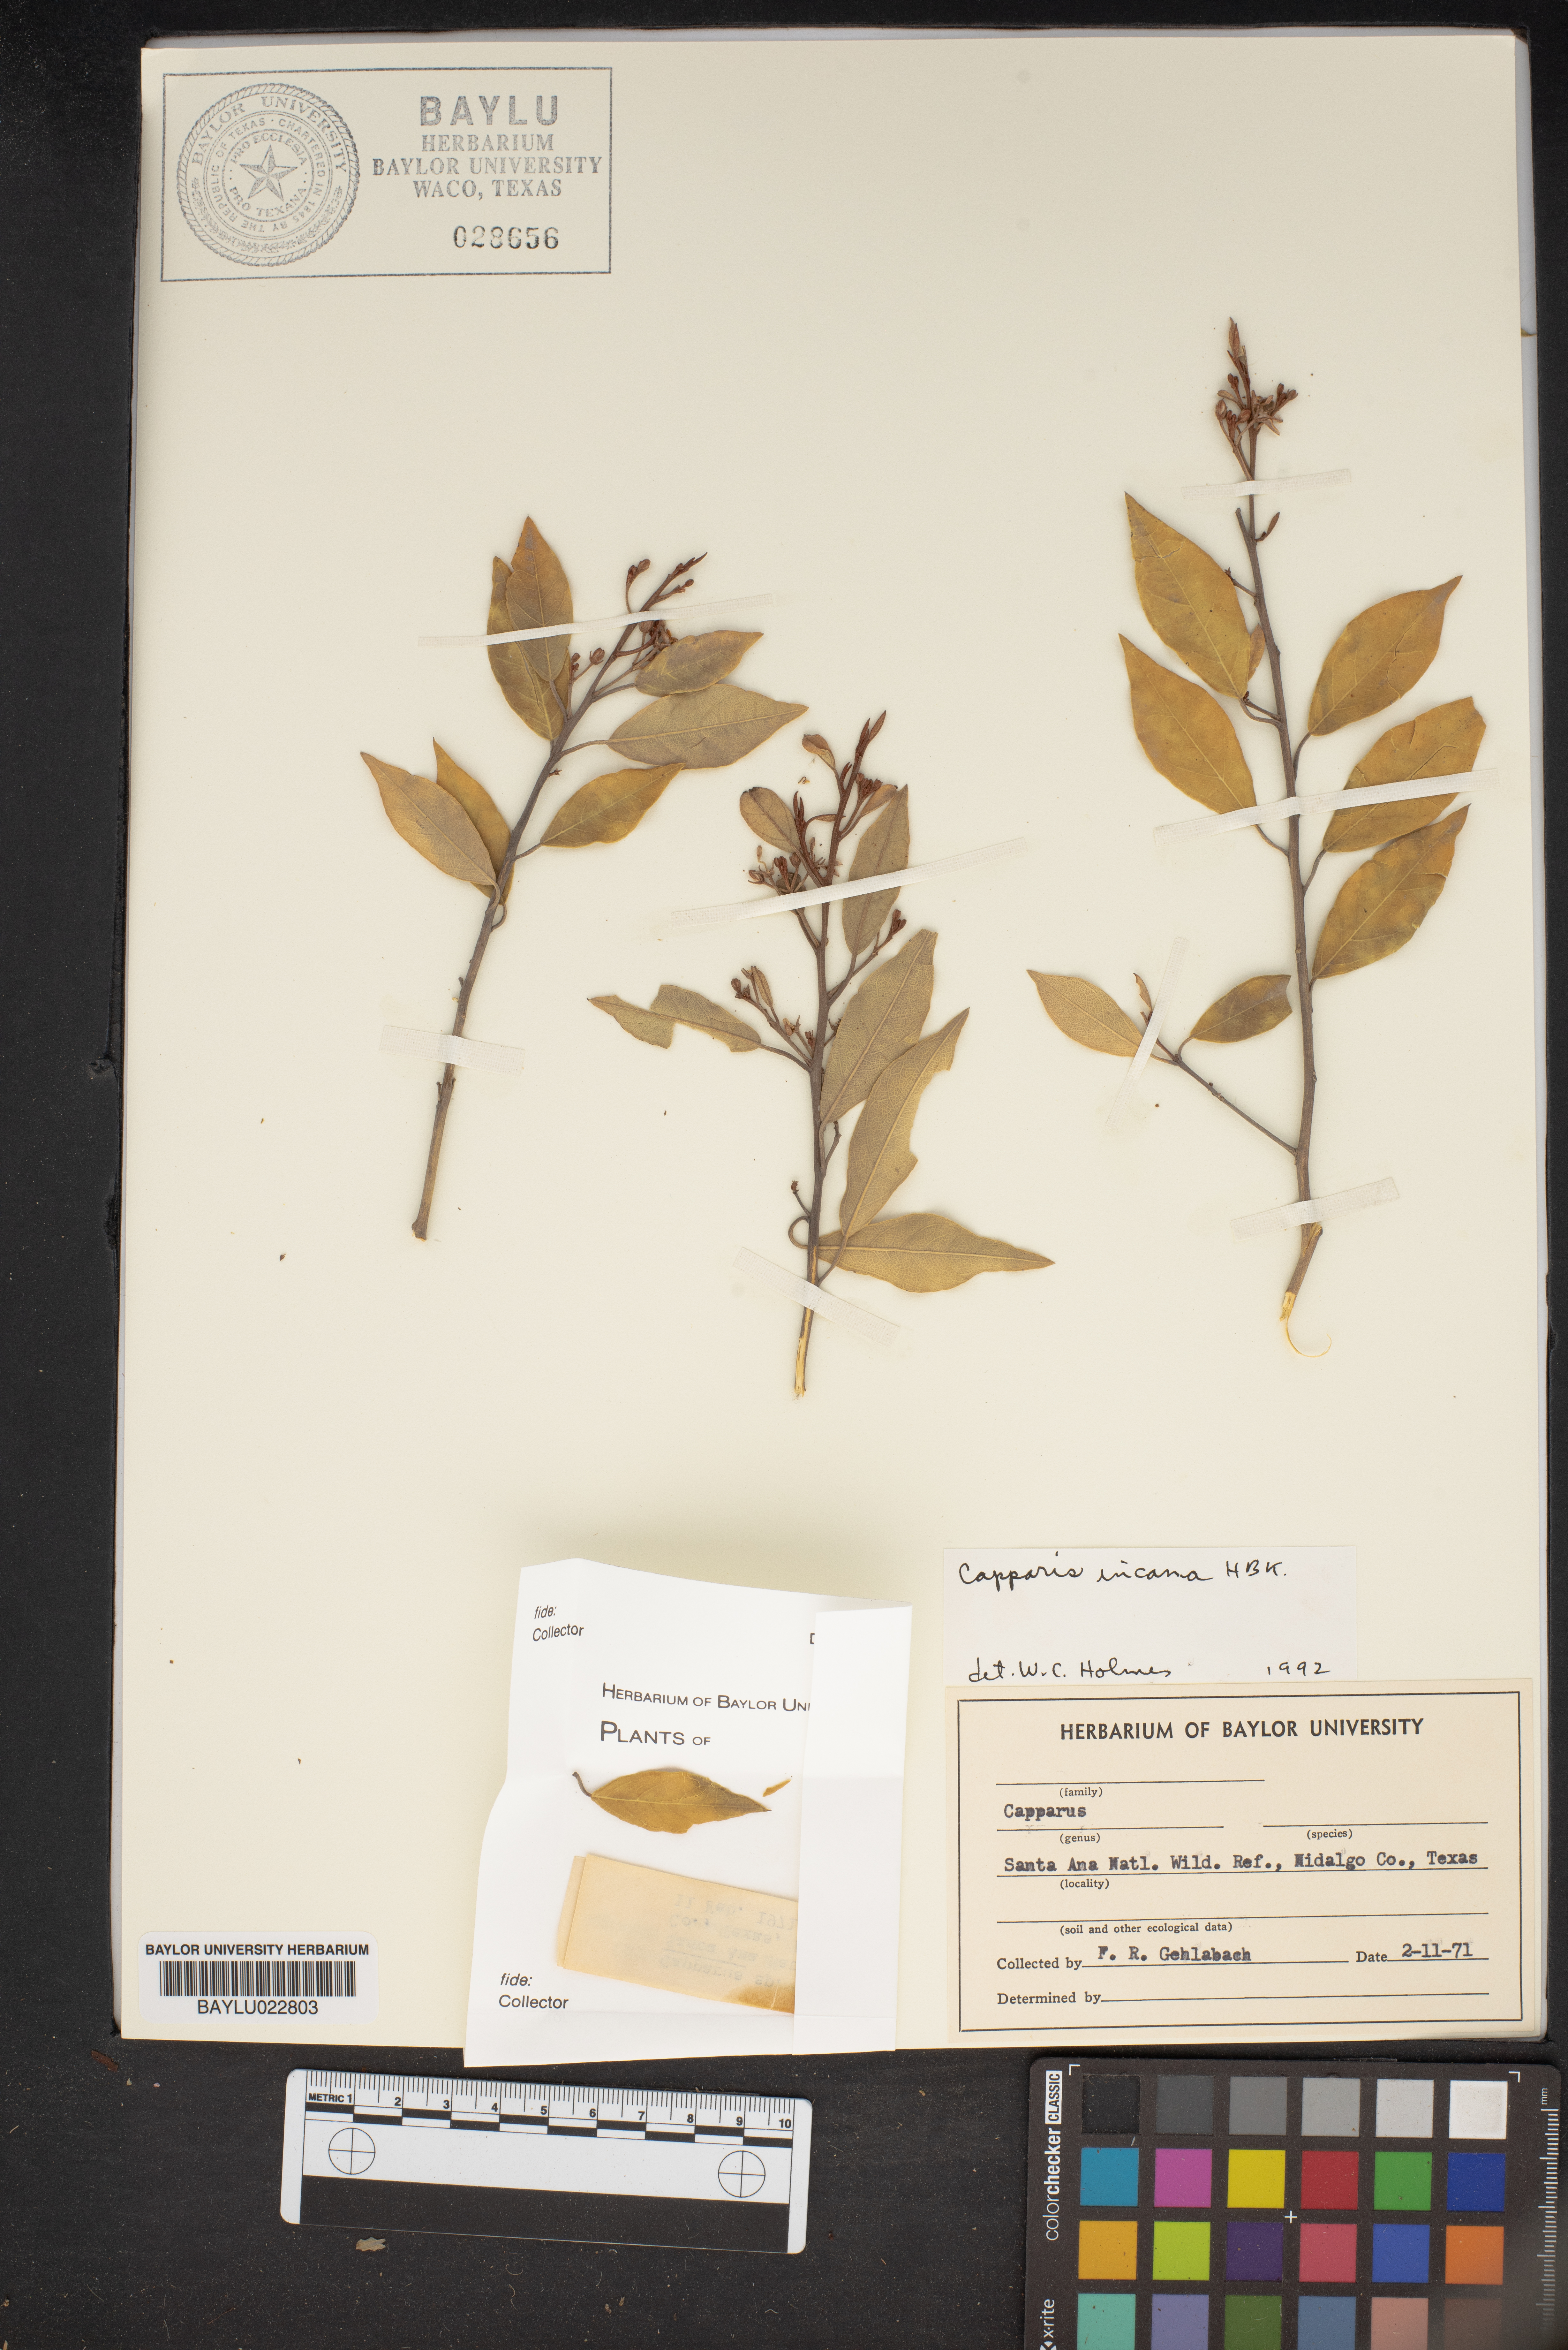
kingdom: Plantae
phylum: Tracheophyta
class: Magnoliopsida
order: Brassicales
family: Capparaceae
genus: Quadrella
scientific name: Quadrella incana
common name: Hoary caper
